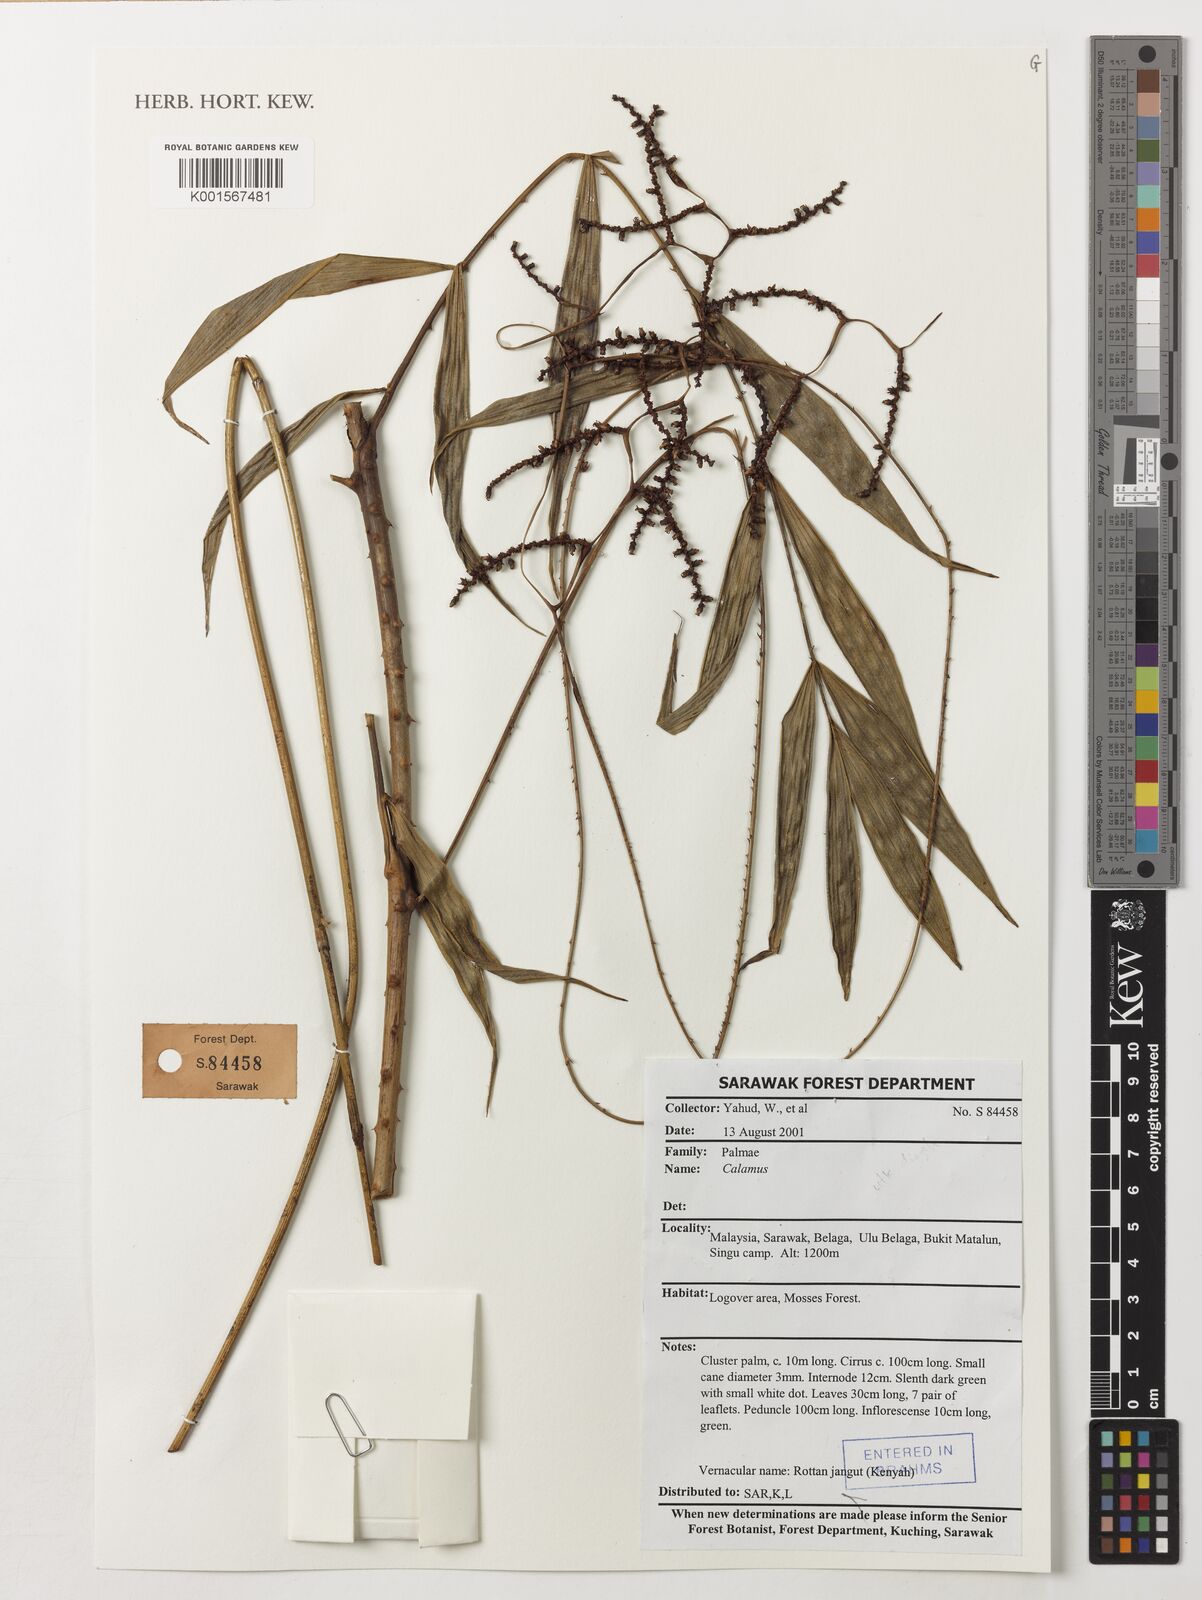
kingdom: Plantae
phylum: Tracheophyta
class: Liliopsida
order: Arecales
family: Arecaceae
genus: Calamus
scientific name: Calamus
